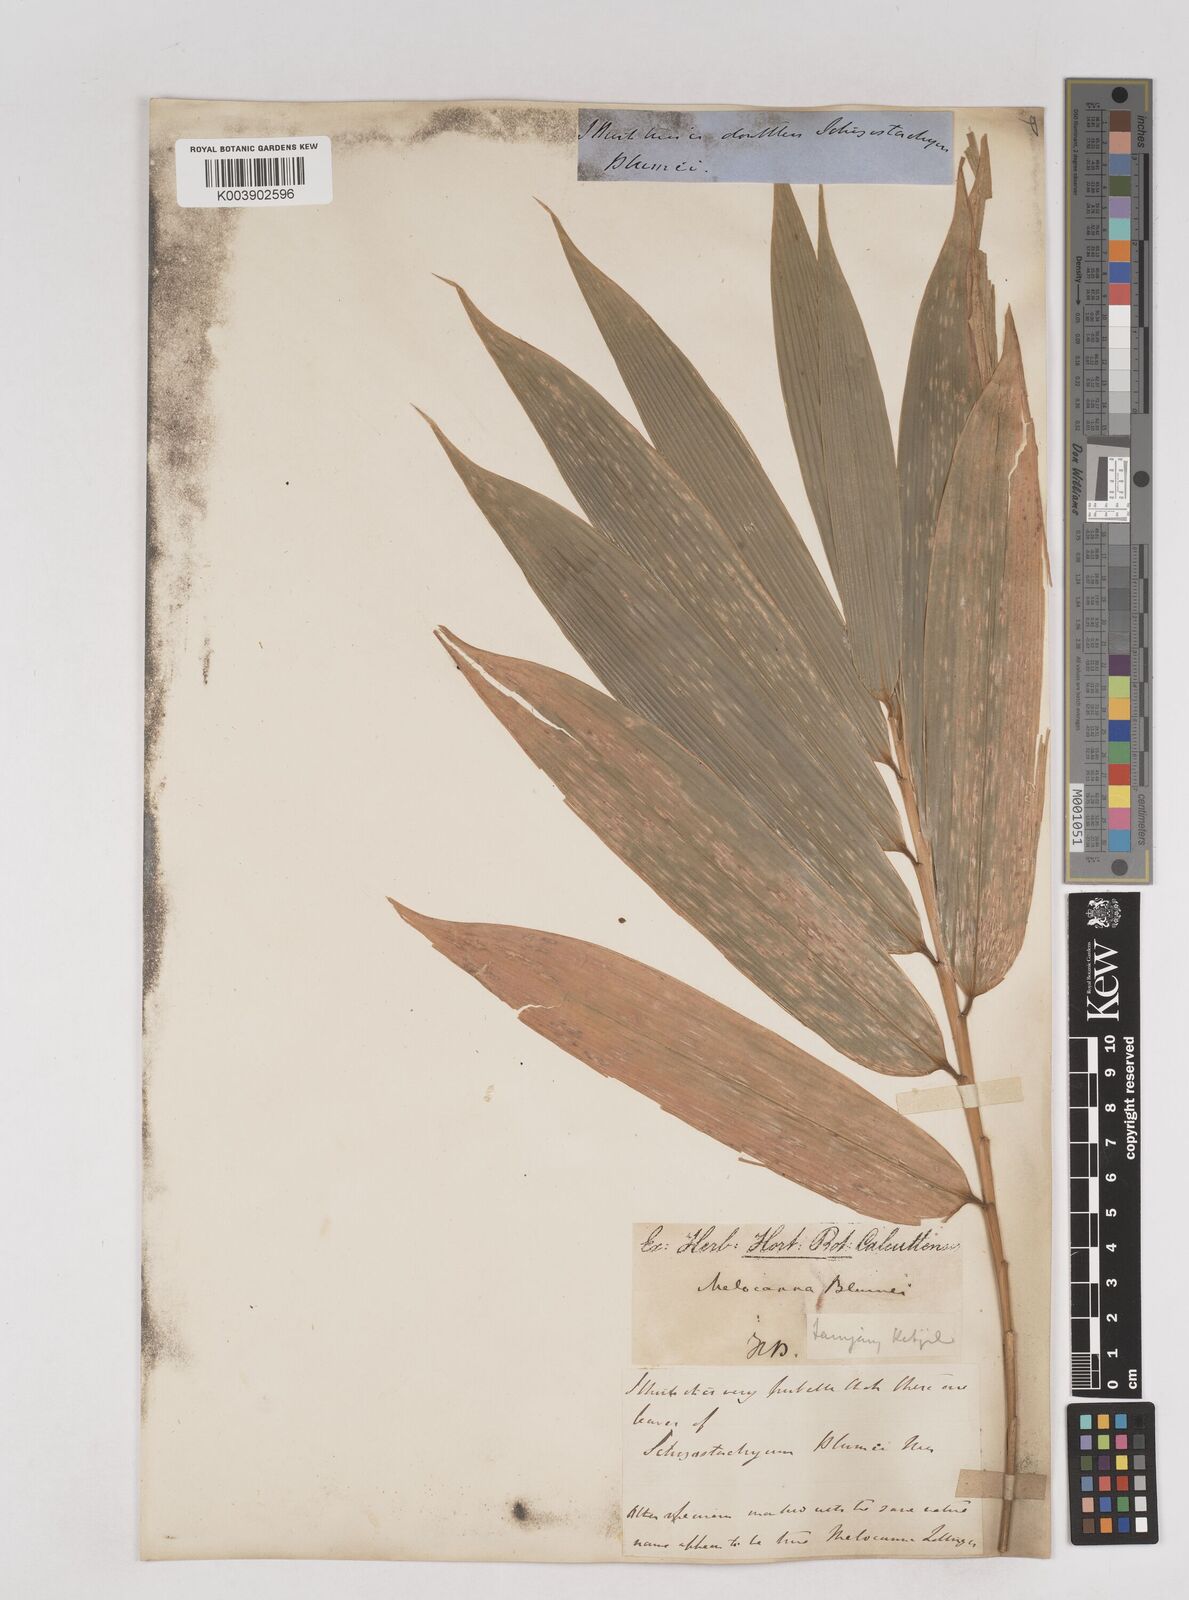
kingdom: Plantae
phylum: Tracheophyta
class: Liliopsida
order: Poales
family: Poaceae
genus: Schizostachyum
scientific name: Schizostachyum blumei
